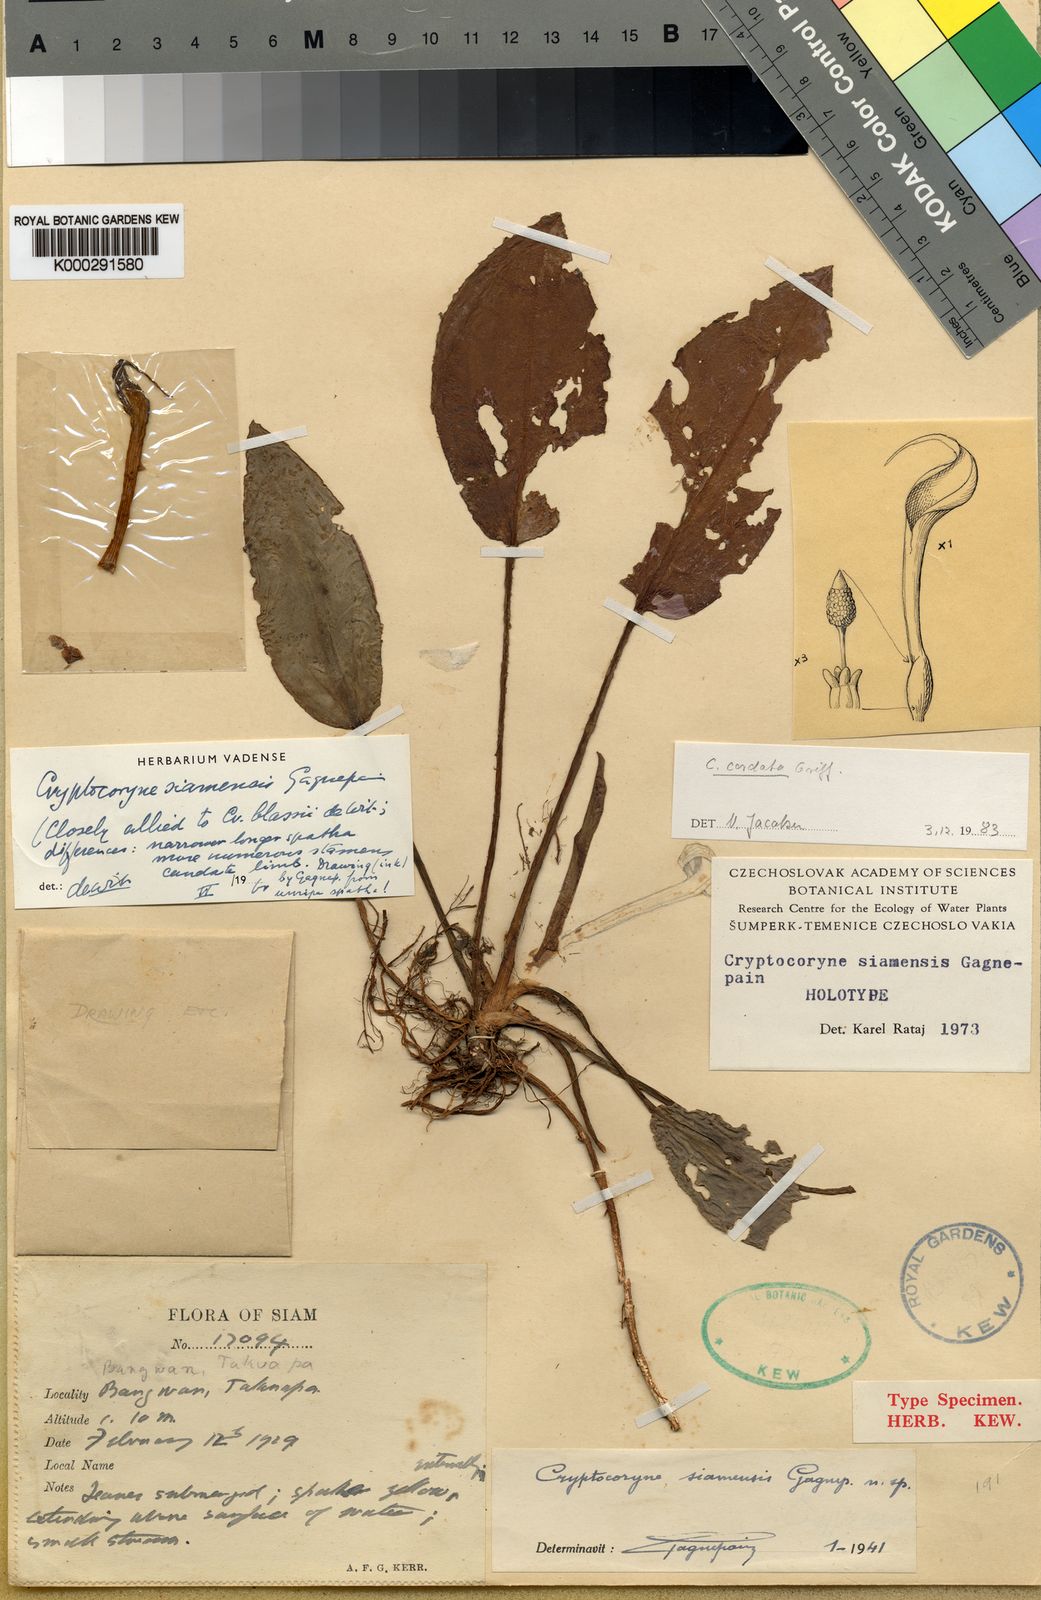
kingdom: Plantae
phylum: Tracheophyta
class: Liliopsida
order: Alismatales
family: Araceae
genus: Cryptocoryne
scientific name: Cryptocoryne cordata
